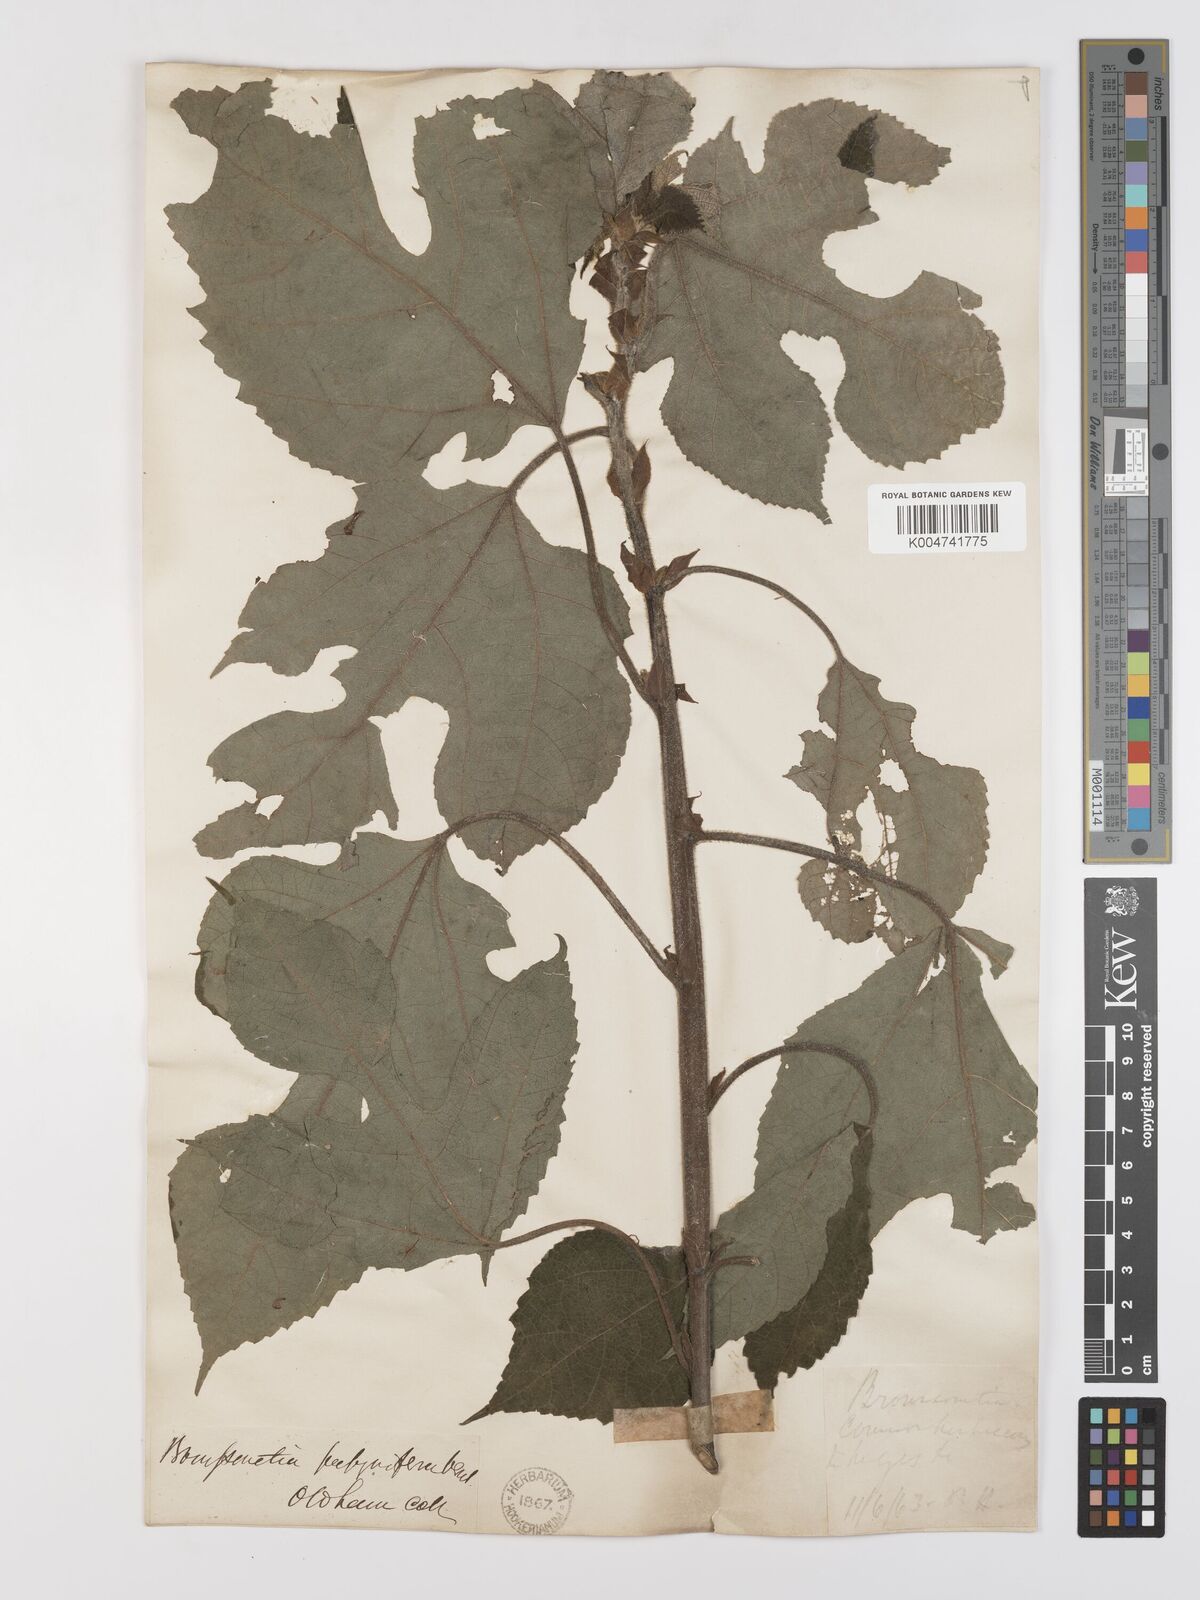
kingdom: Plantae
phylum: Tracheophyta
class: Magnoliopsida
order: Rosales
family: Moraceae
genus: Broussonetia
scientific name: Broussonetia papyrifera
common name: Paper mulberry
